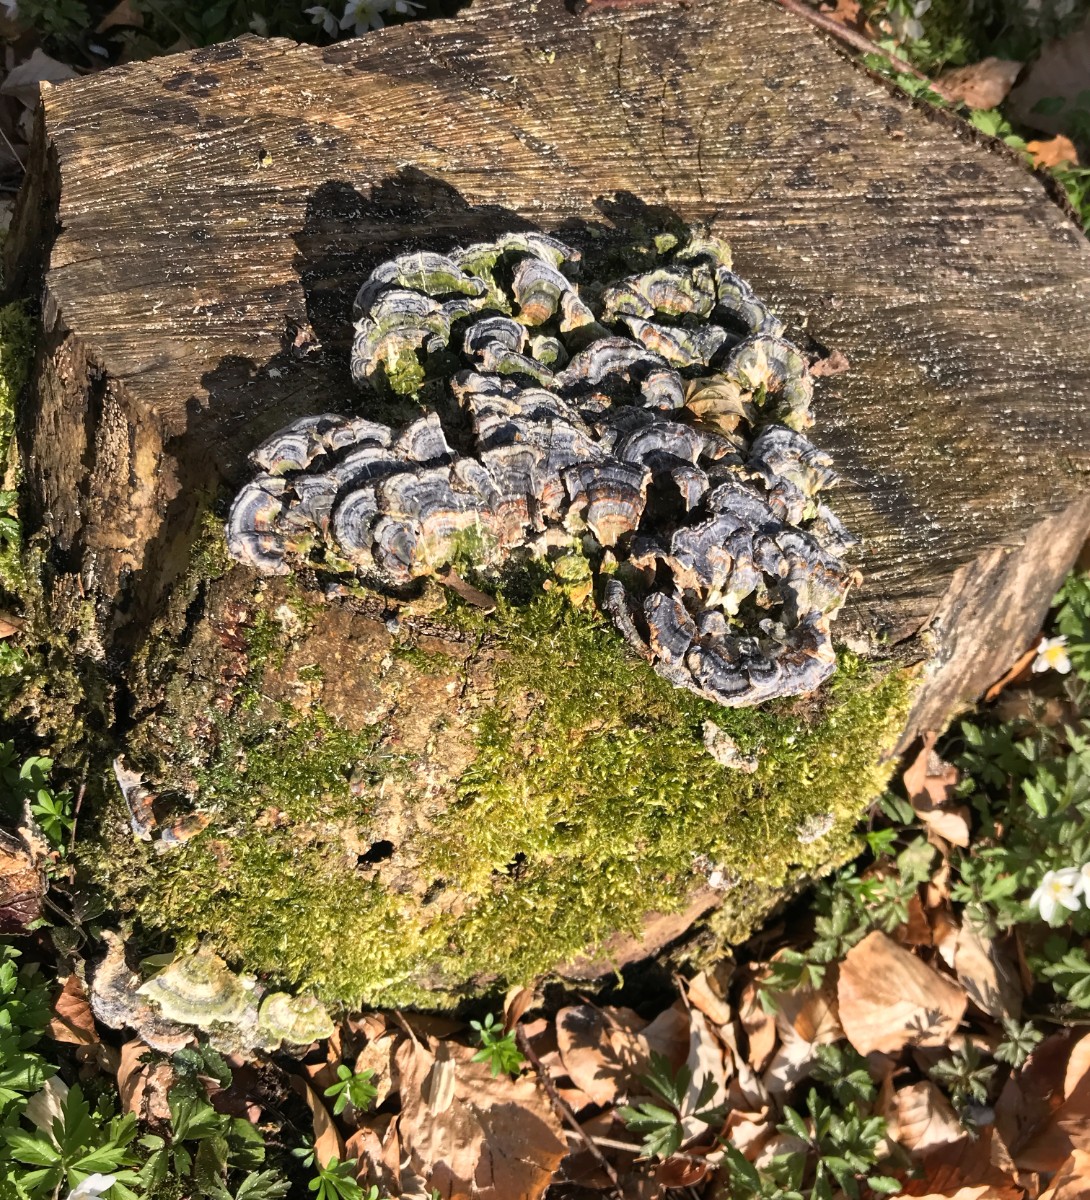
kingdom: Fungi
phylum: Basidiomycota
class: Agaricomycetes
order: Polyporales
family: Polyporaceae
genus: Trametes
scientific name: Trametes versicolor
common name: broget læderporesvamp
